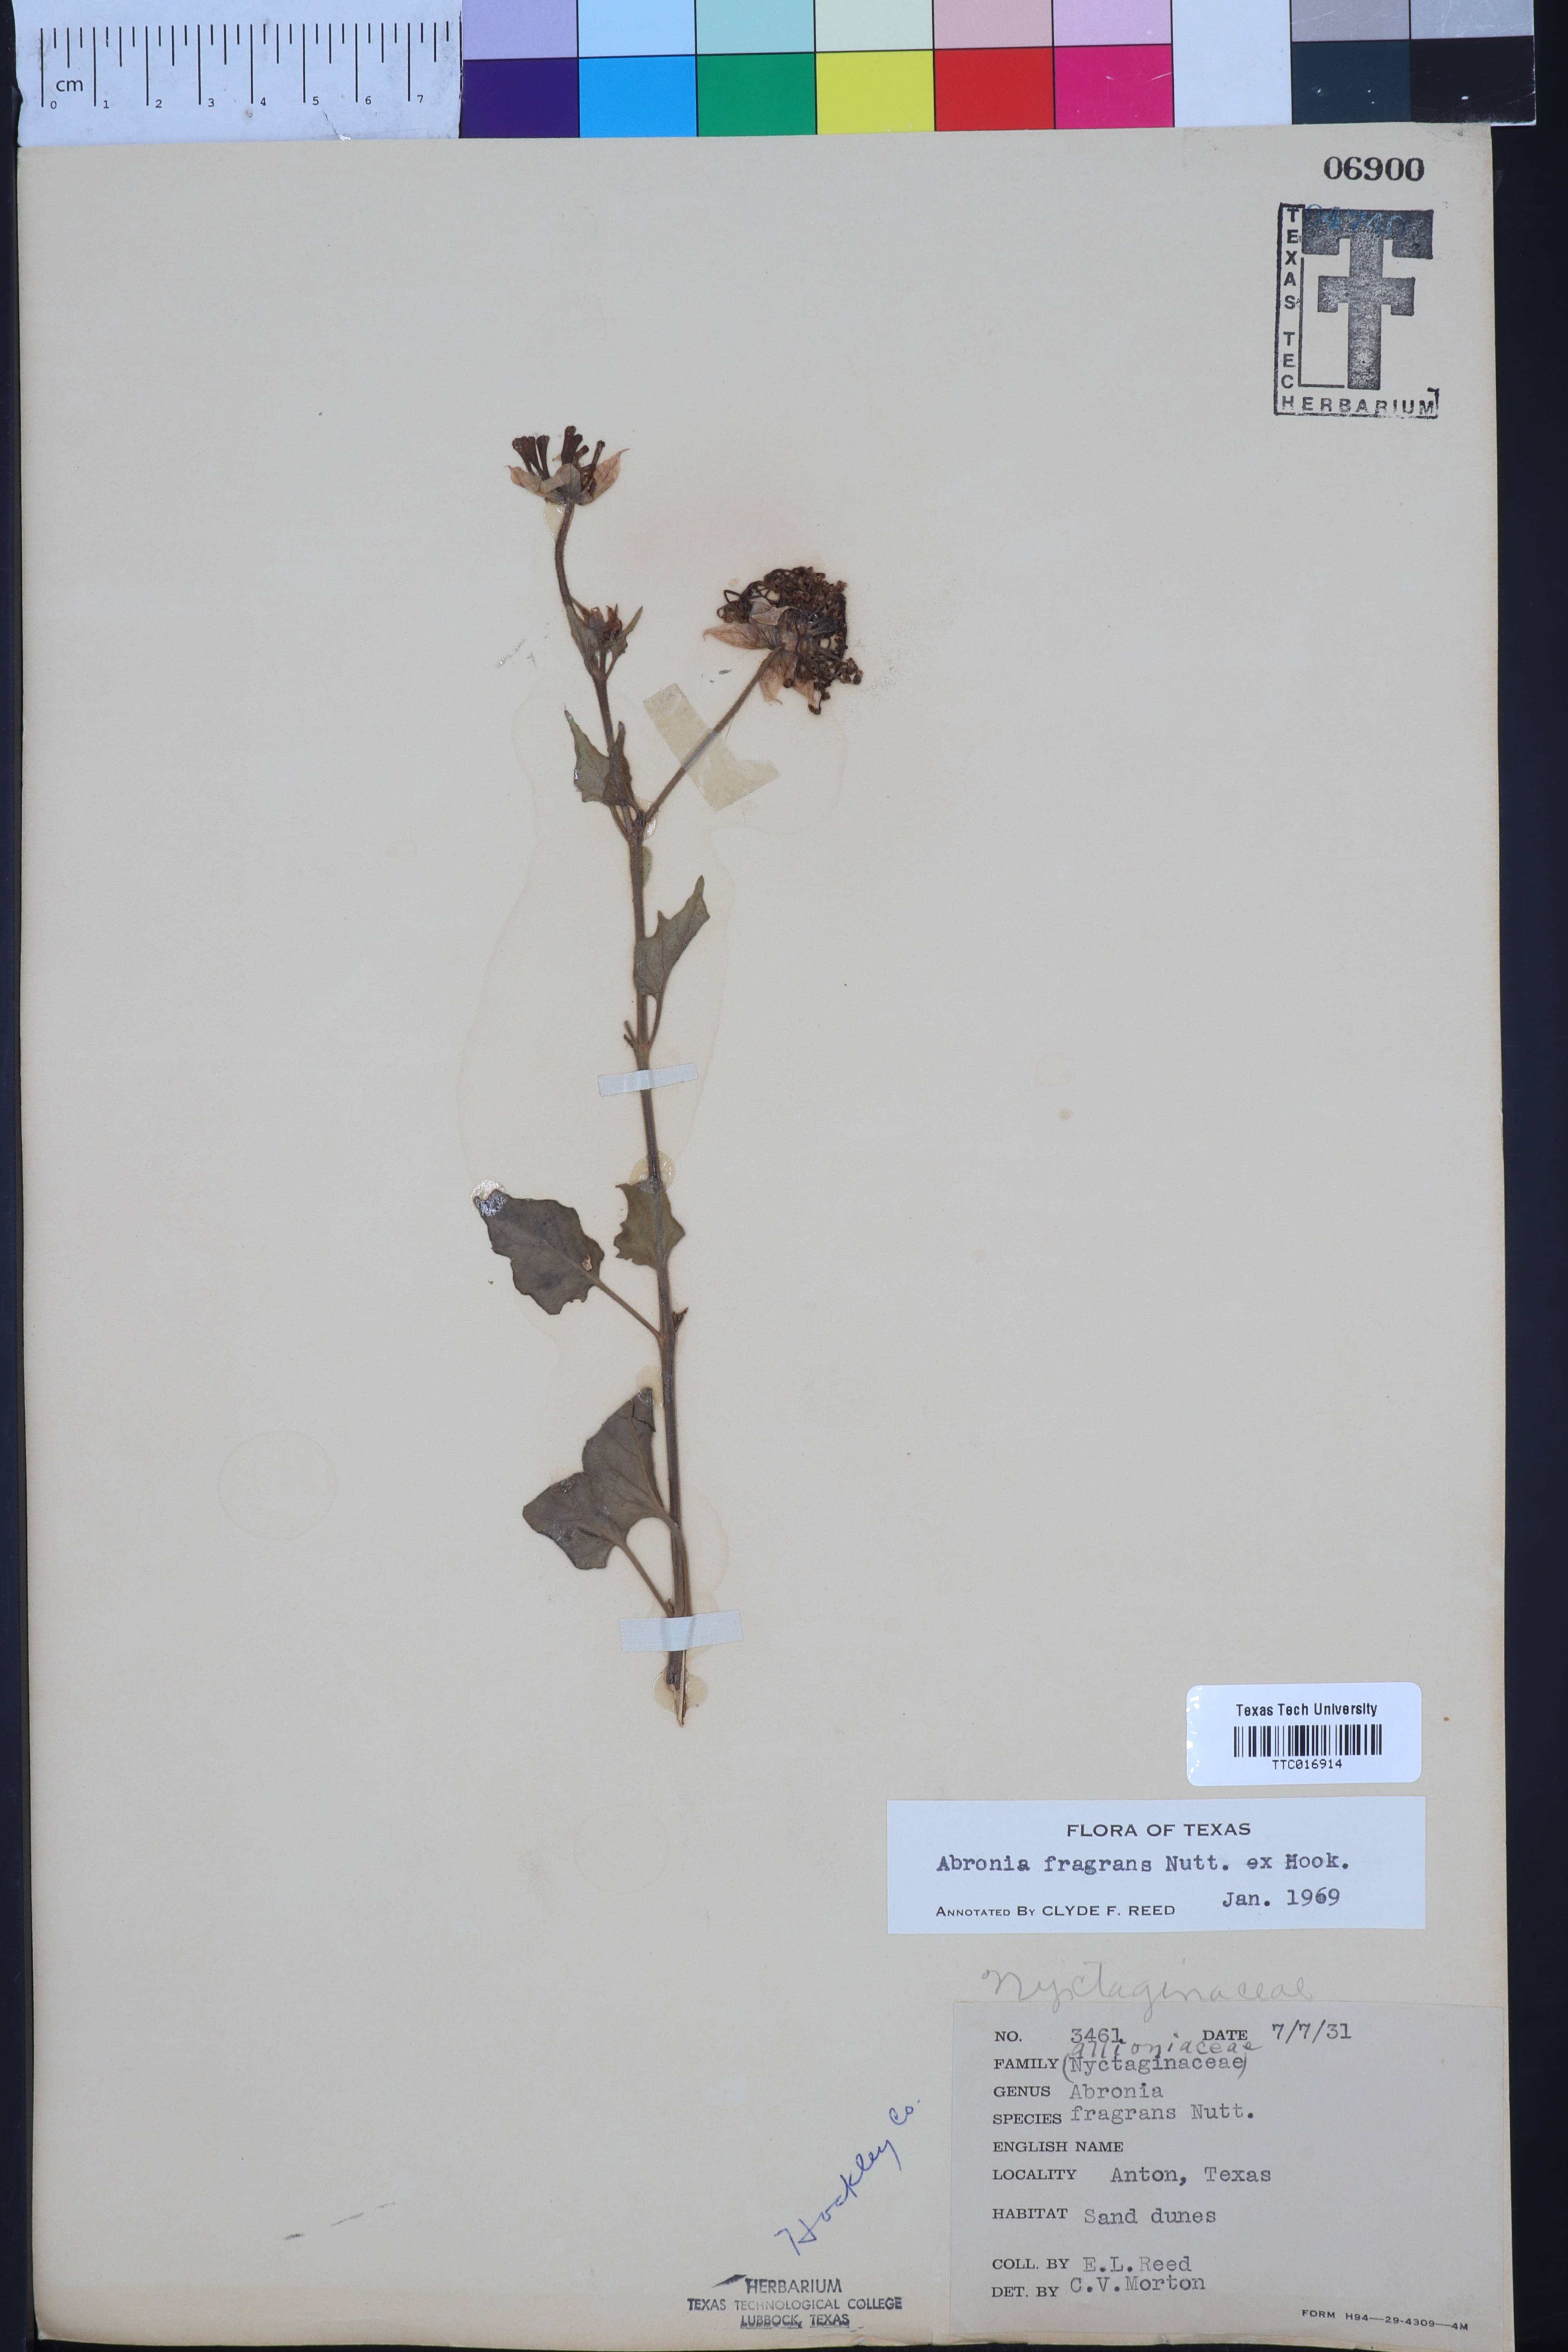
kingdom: Plantae
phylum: Tracheophyta
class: Magnoliopsida
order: Caryophyllales
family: Nyctaginaceae
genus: Abronia
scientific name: Abronia fragrans
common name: Fragrant sand-verbena
